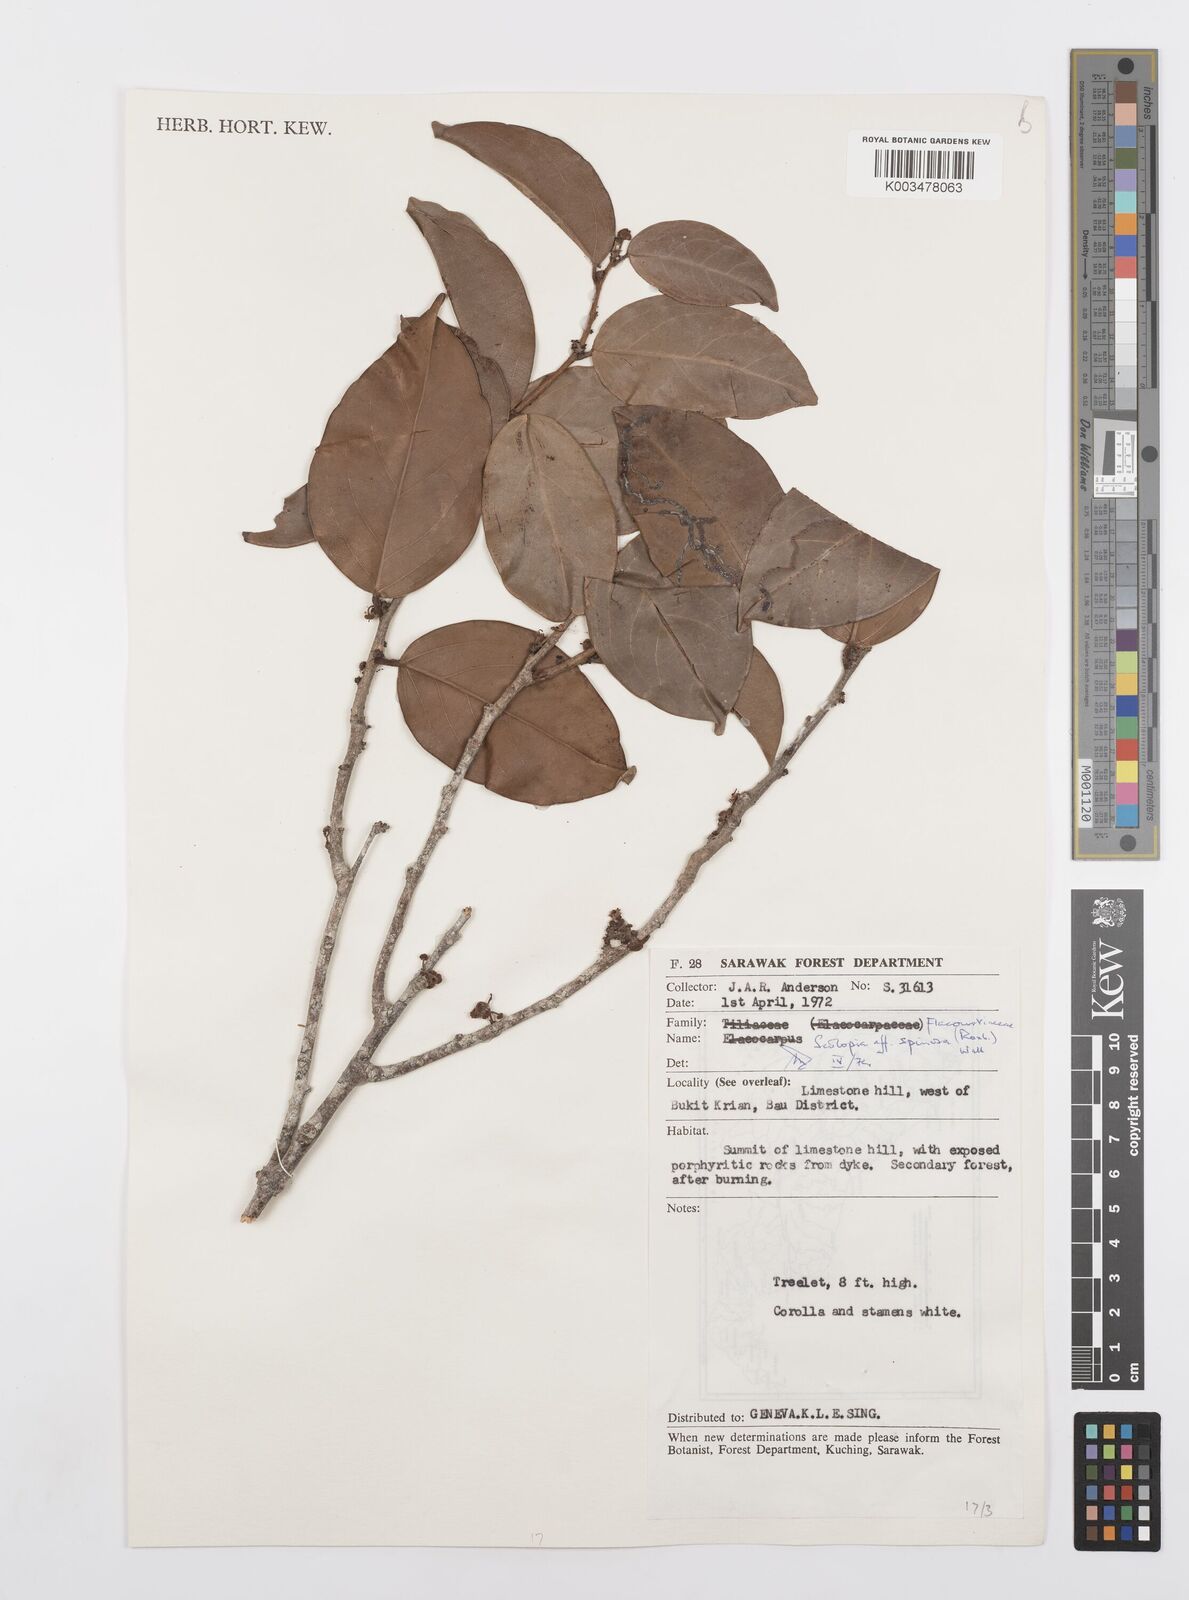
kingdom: Plantae
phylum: Tracheophyta
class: Magnoliopsida
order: Malpighiales
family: Salicaceae
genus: Scolopia
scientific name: Scolopia spinosa
